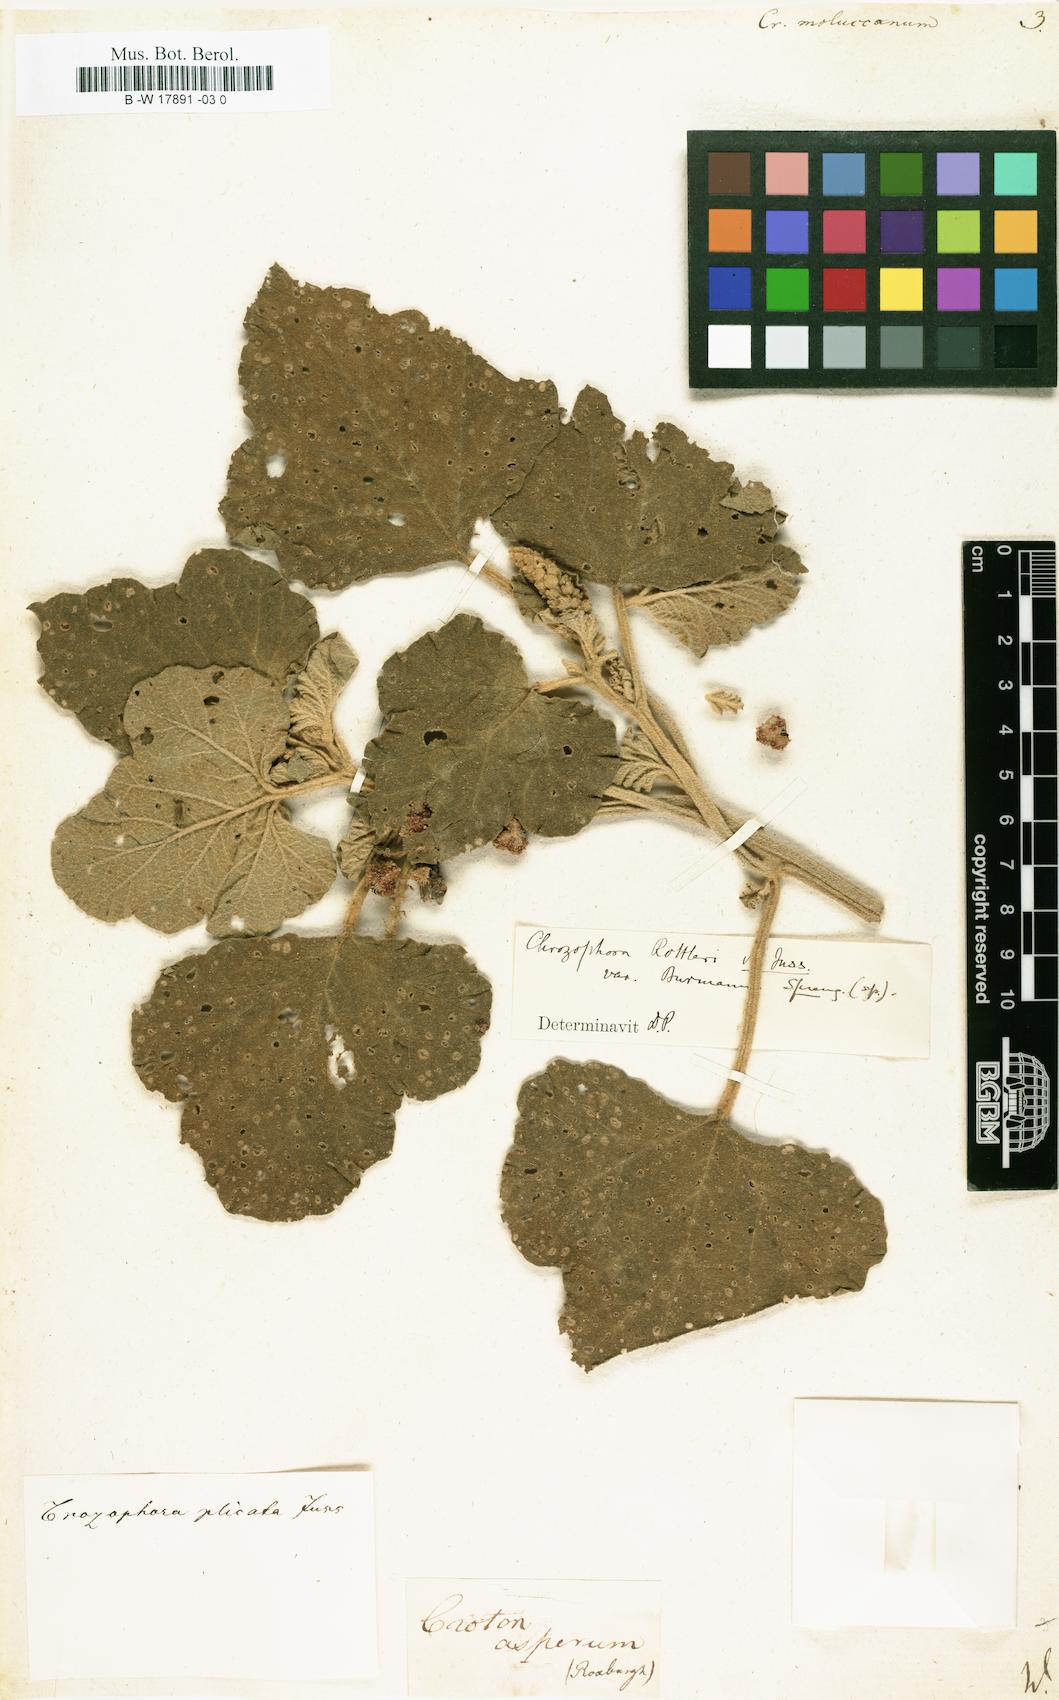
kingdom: Plantae
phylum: Tracheophyta
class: Magnoliopsida
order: Malpighiales
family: Euphorbiaceae
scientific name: Euphorbiaceae
